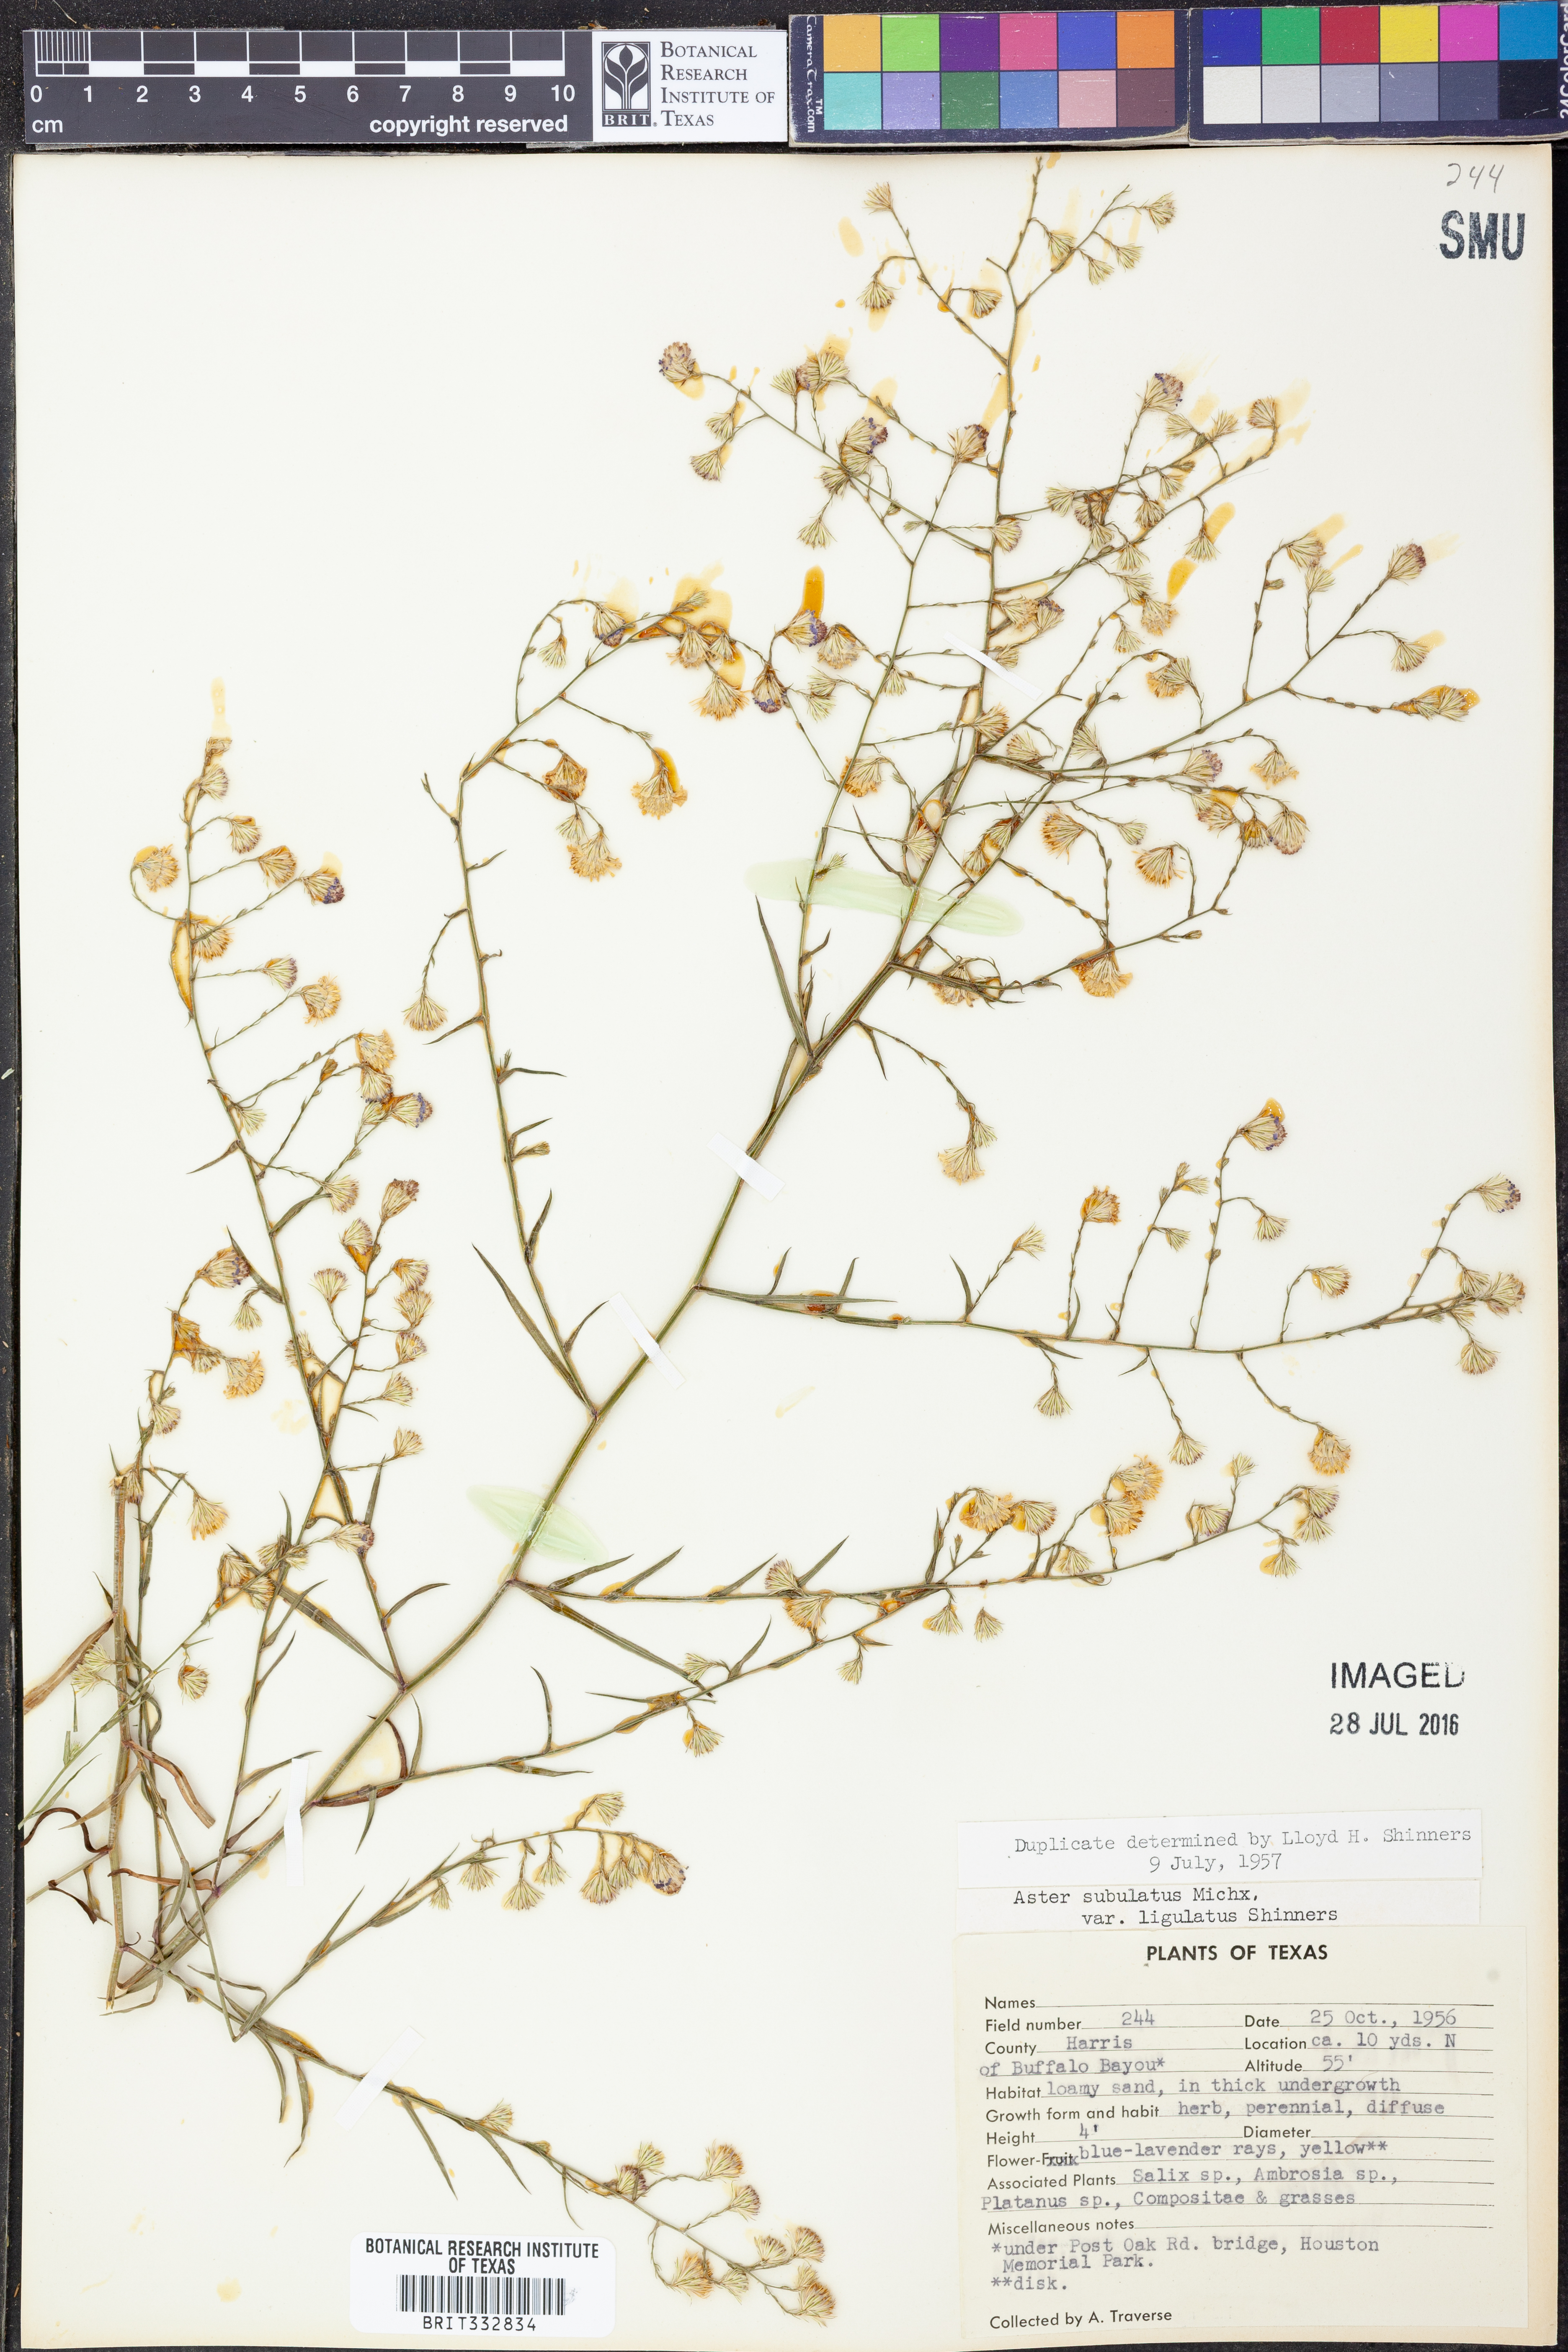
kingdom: Plantae
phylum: Tracheophyta
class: Magnoliopsida
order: Asterales
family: Asteraceae
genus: Symphyotrichum
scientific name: Symphyotrichum divaricatum
